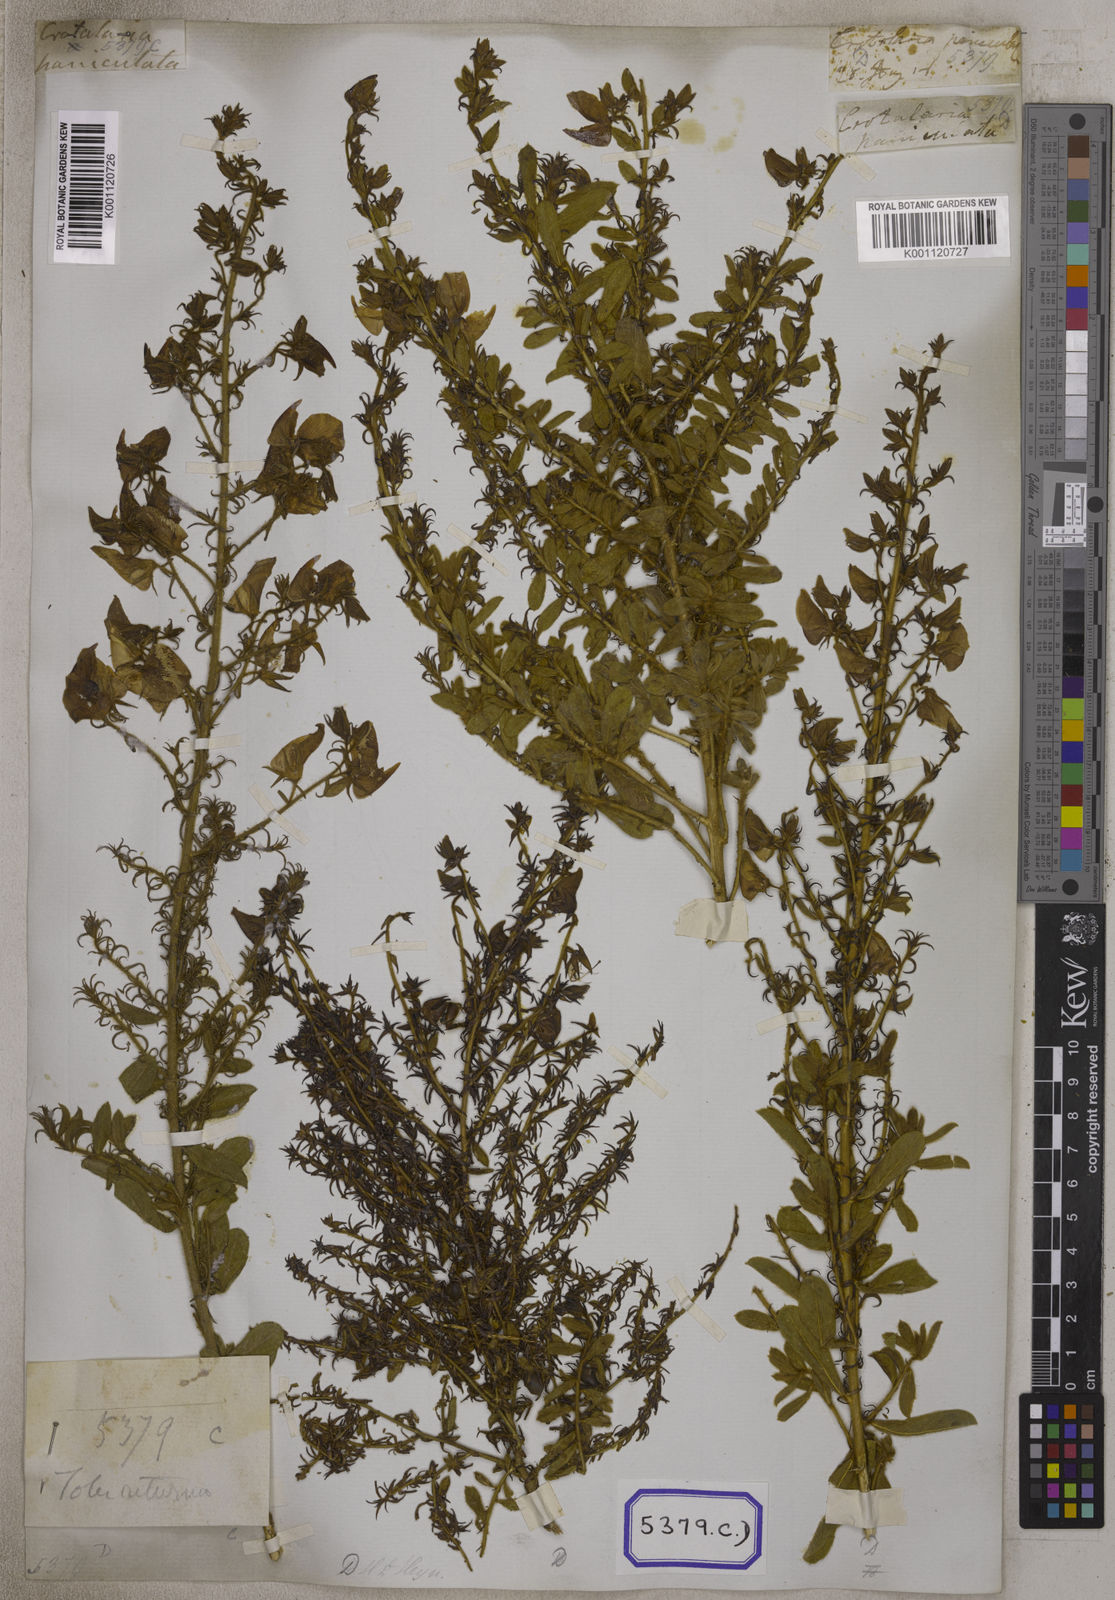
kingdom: Plantae
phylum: Tracheophyta
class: Magnoliopsida
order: Fabales
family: Fabaceae
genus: Crotalaria
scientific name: Crotalaria paniculata
